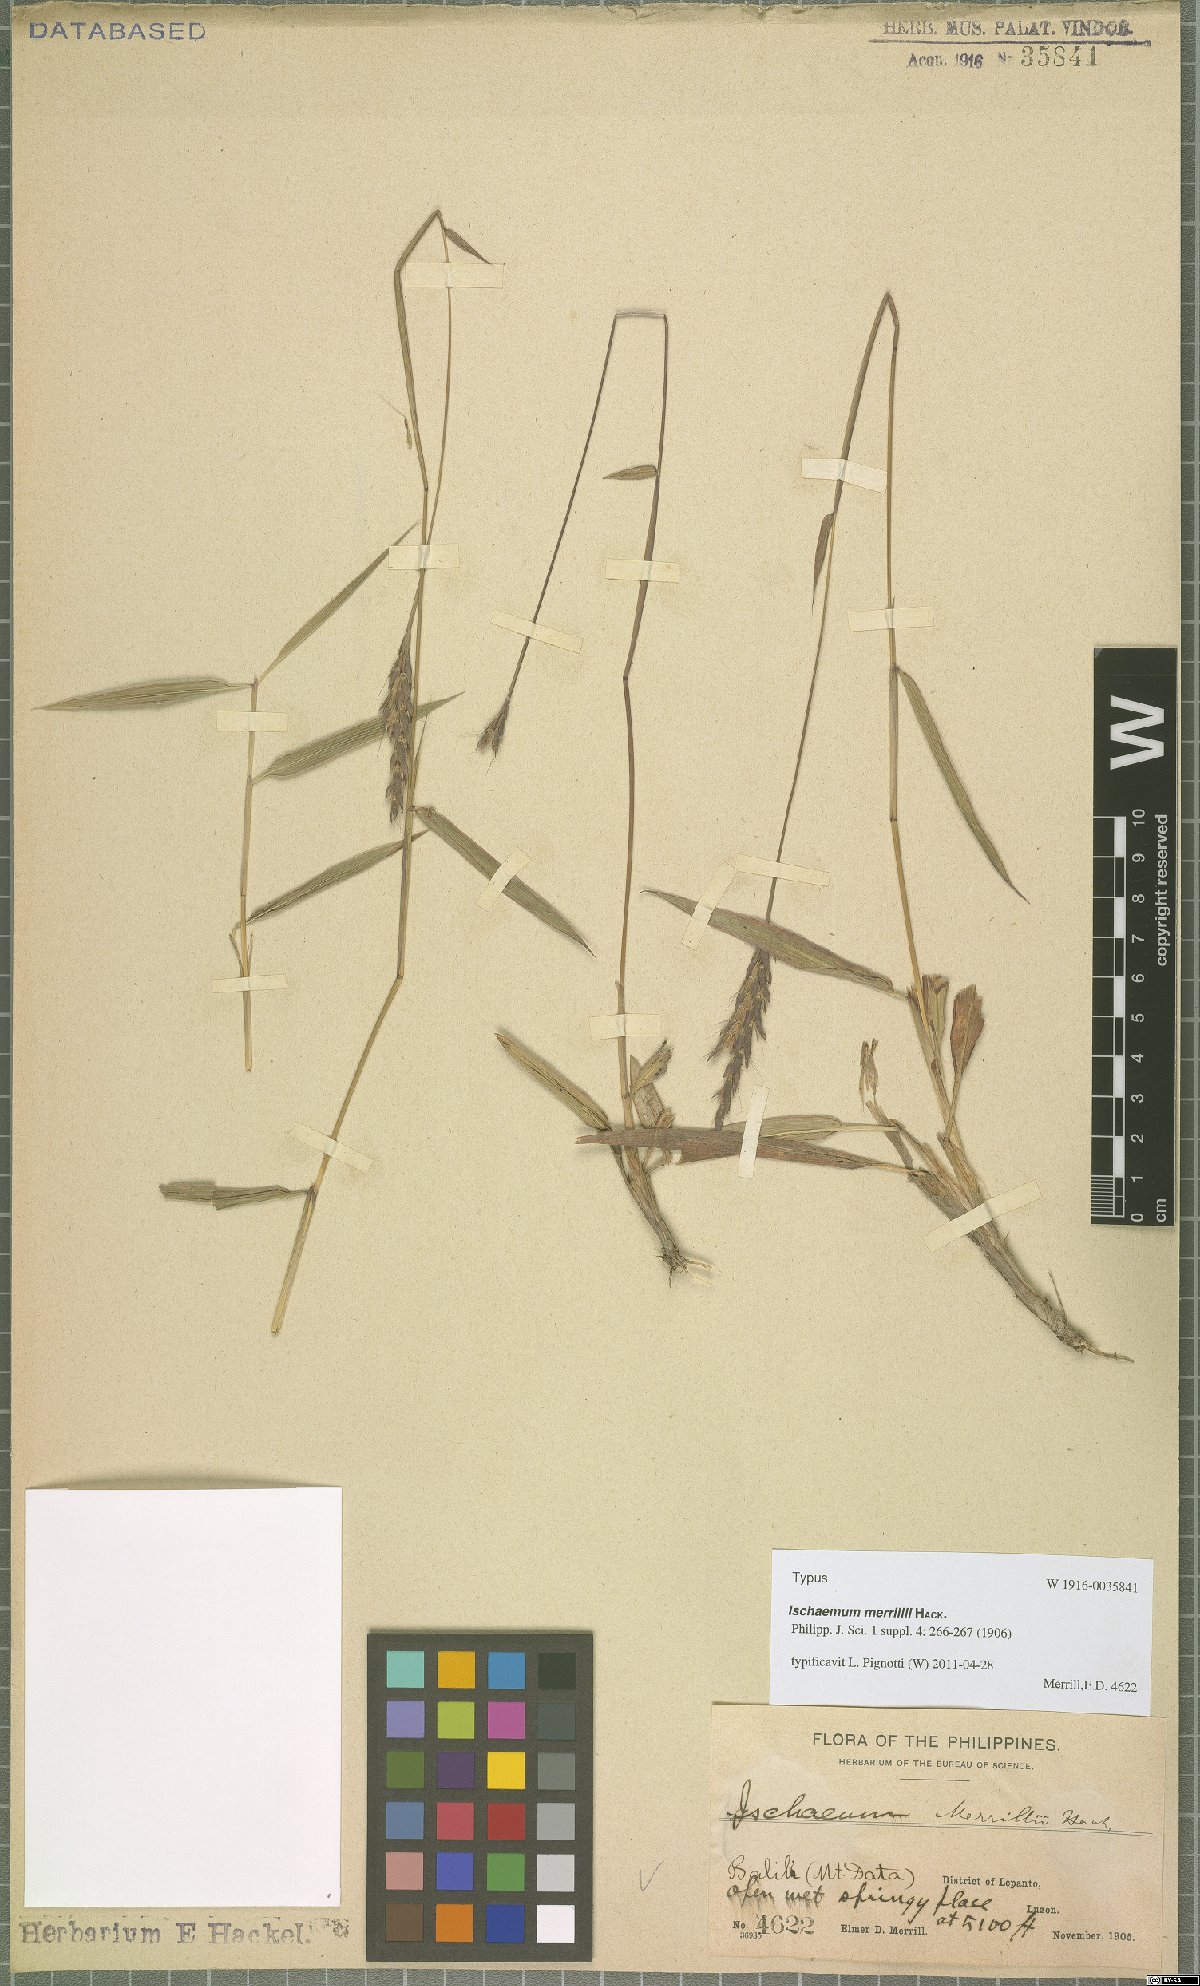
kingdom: Plantae
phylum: Tracheophyta
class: Liliopsida
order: Poales
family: Poaceae
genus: Ischaemum
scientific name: Ischaemum merrillii
